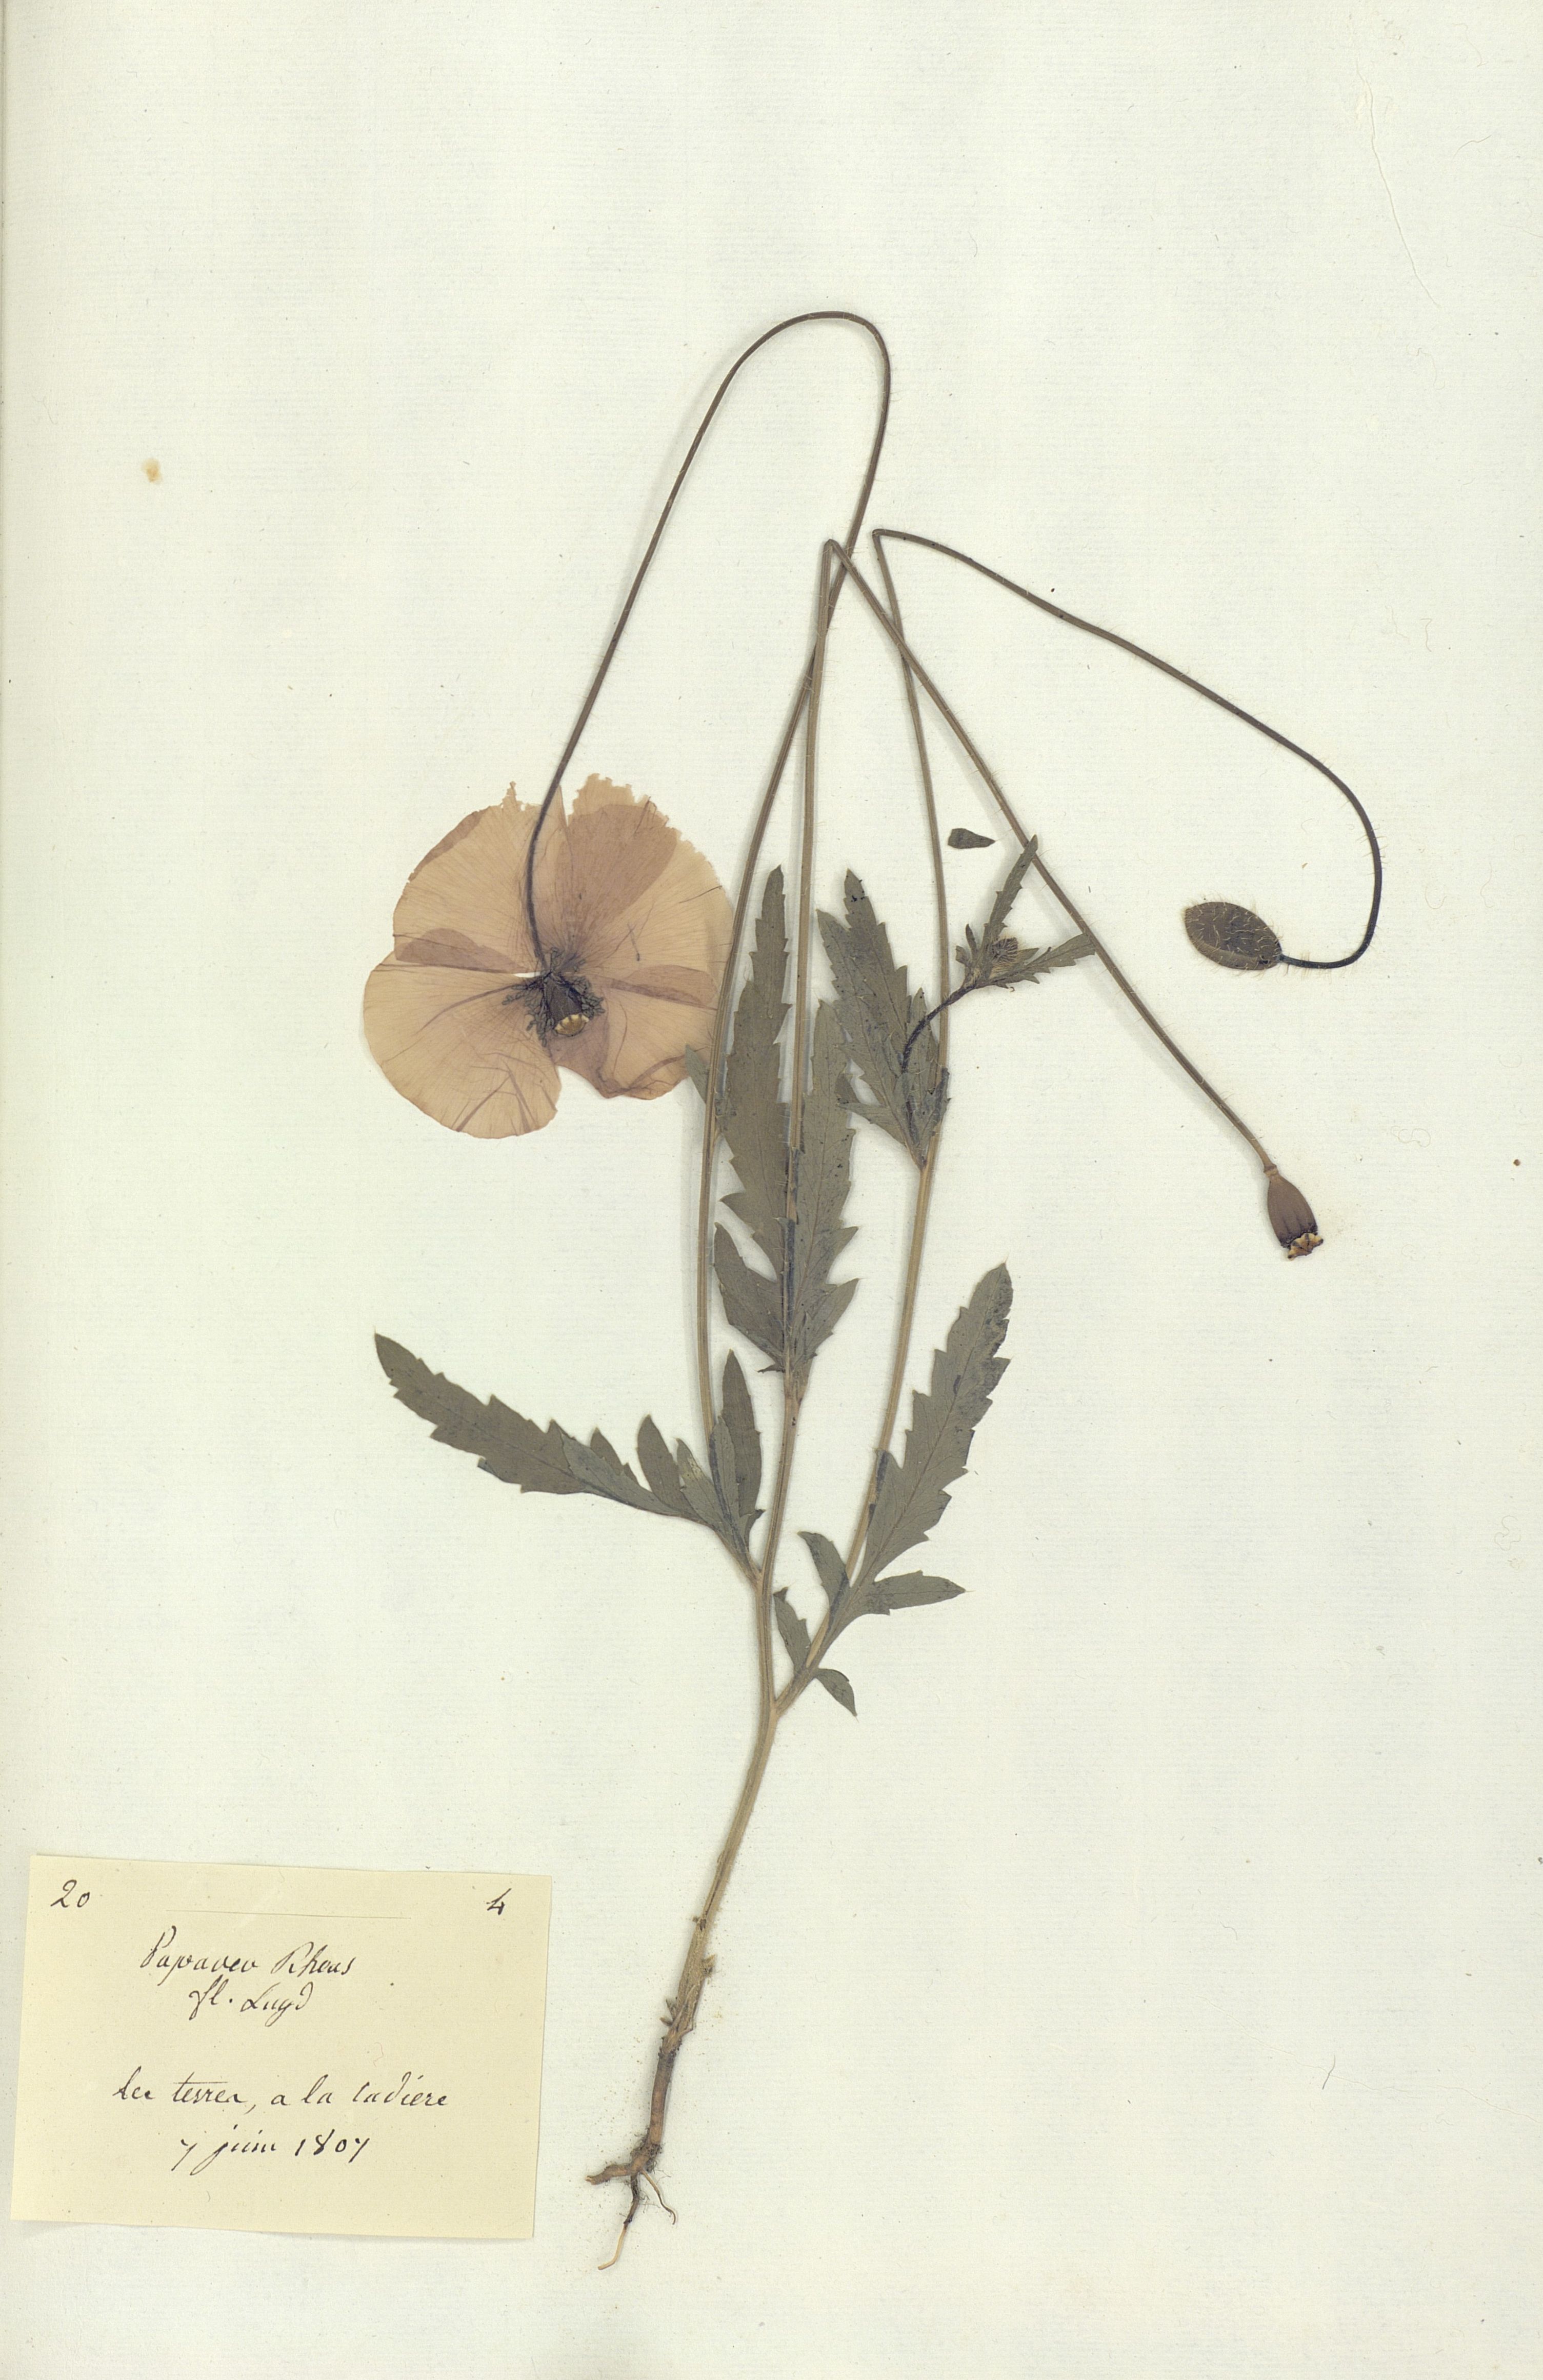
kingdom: Plantae
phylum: Tracheophyta
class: Magnoliopsida
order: Ranunculales
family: Papaveraceae
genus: Papaver
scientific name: Papaver
